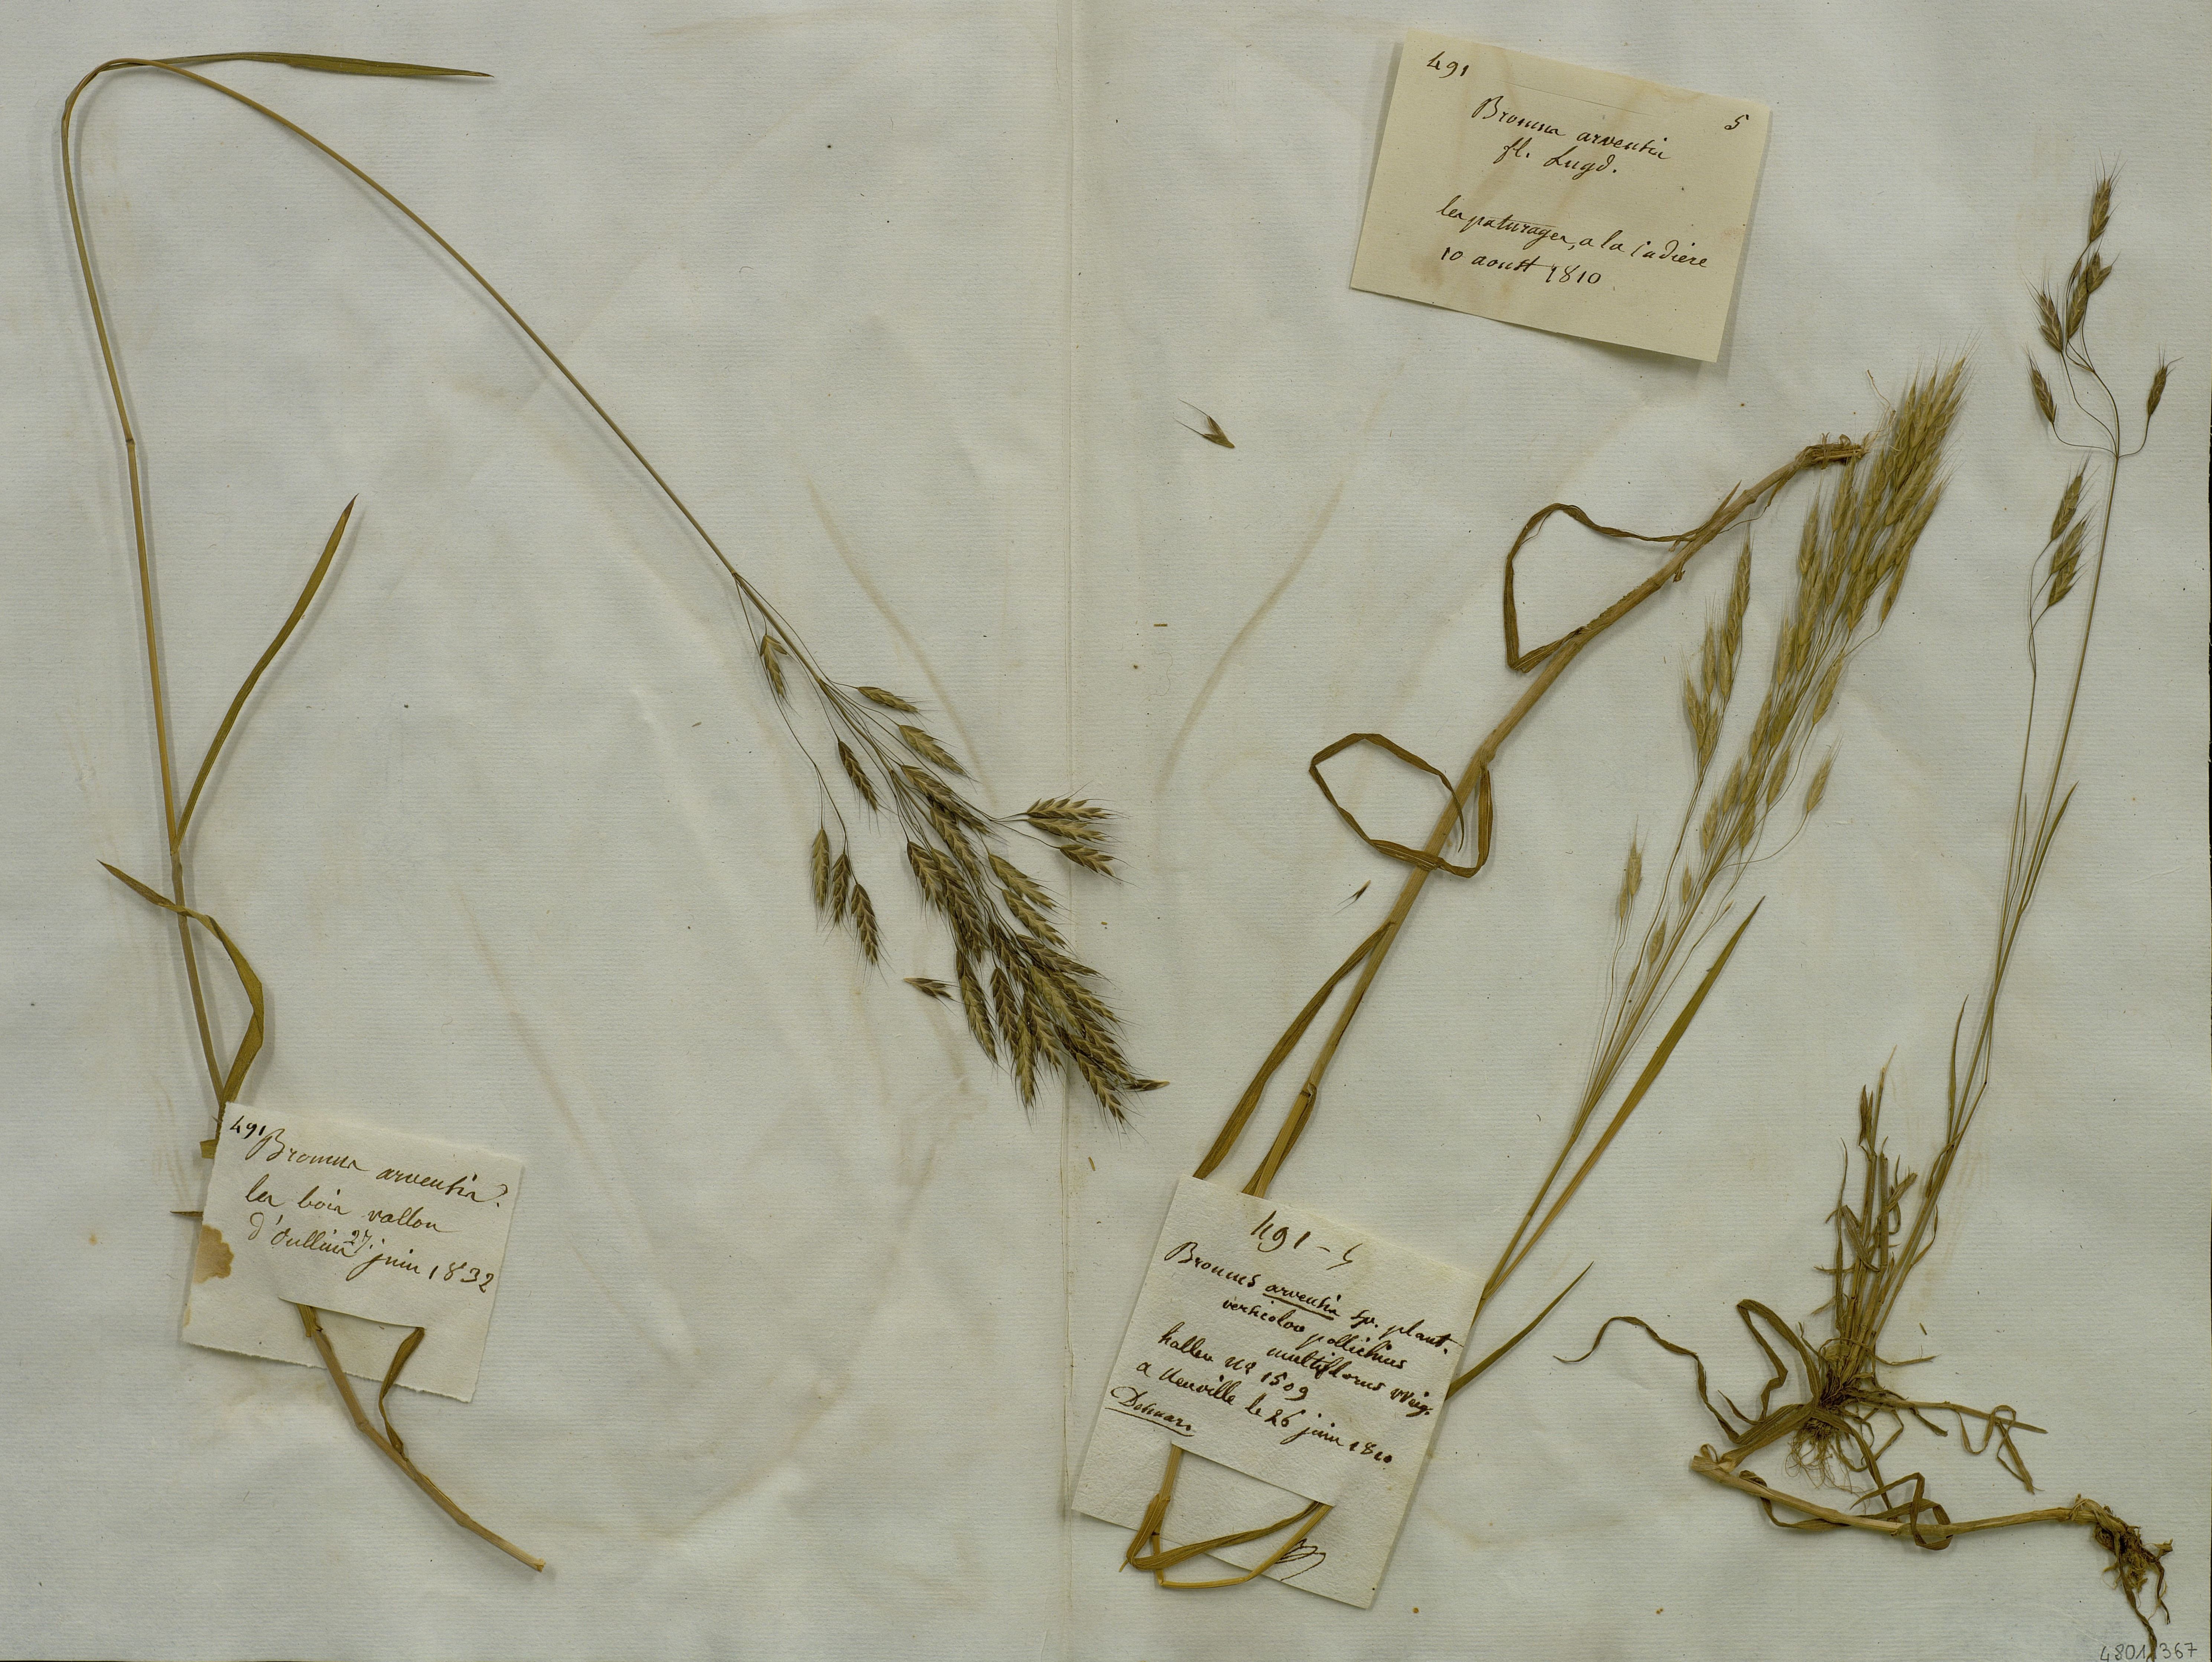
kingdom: Plantae
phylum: Tracheophyta
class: Liliopsida
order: Poales
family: Poaceae
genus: Bromus
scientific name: Bromus arvensis
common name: Field brome
